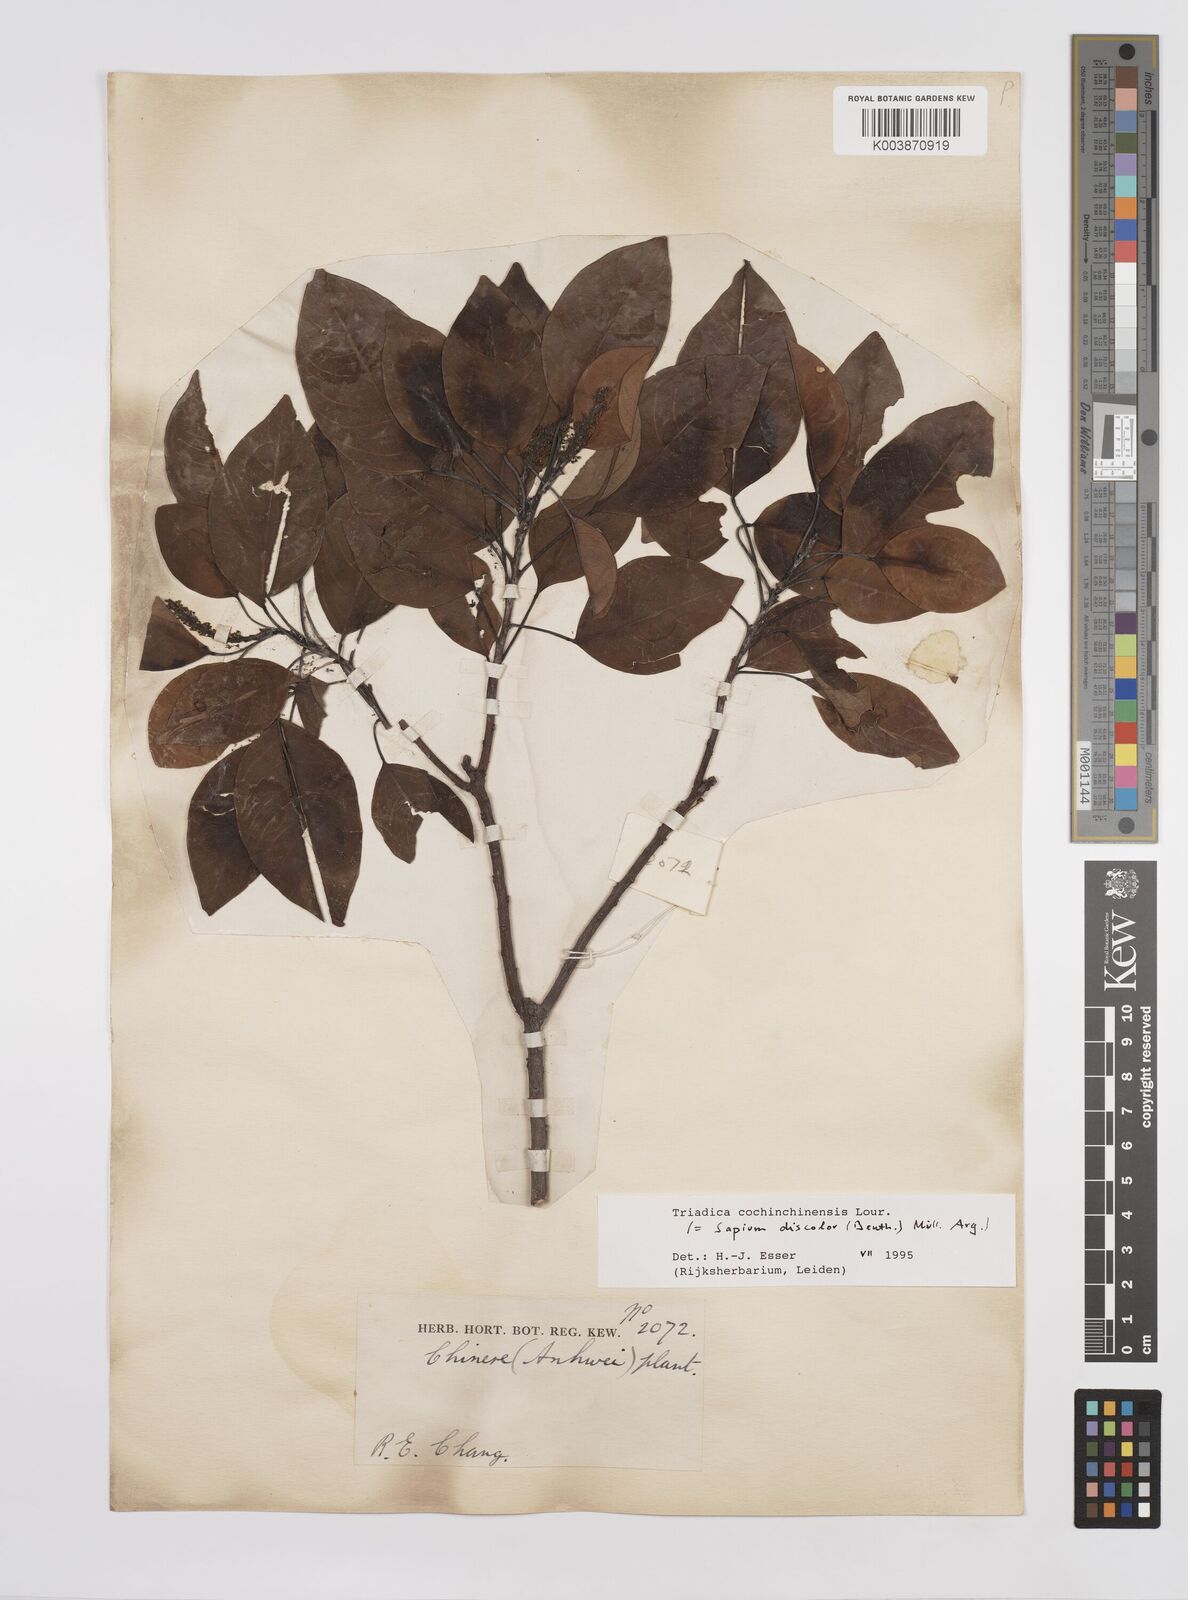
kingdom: Plantae
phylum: Tracheophyta
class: Magnoliopsida
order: Malpighiales
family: Euphorbiaceae
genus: Triadica
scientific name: Triadica cochinchinensis
